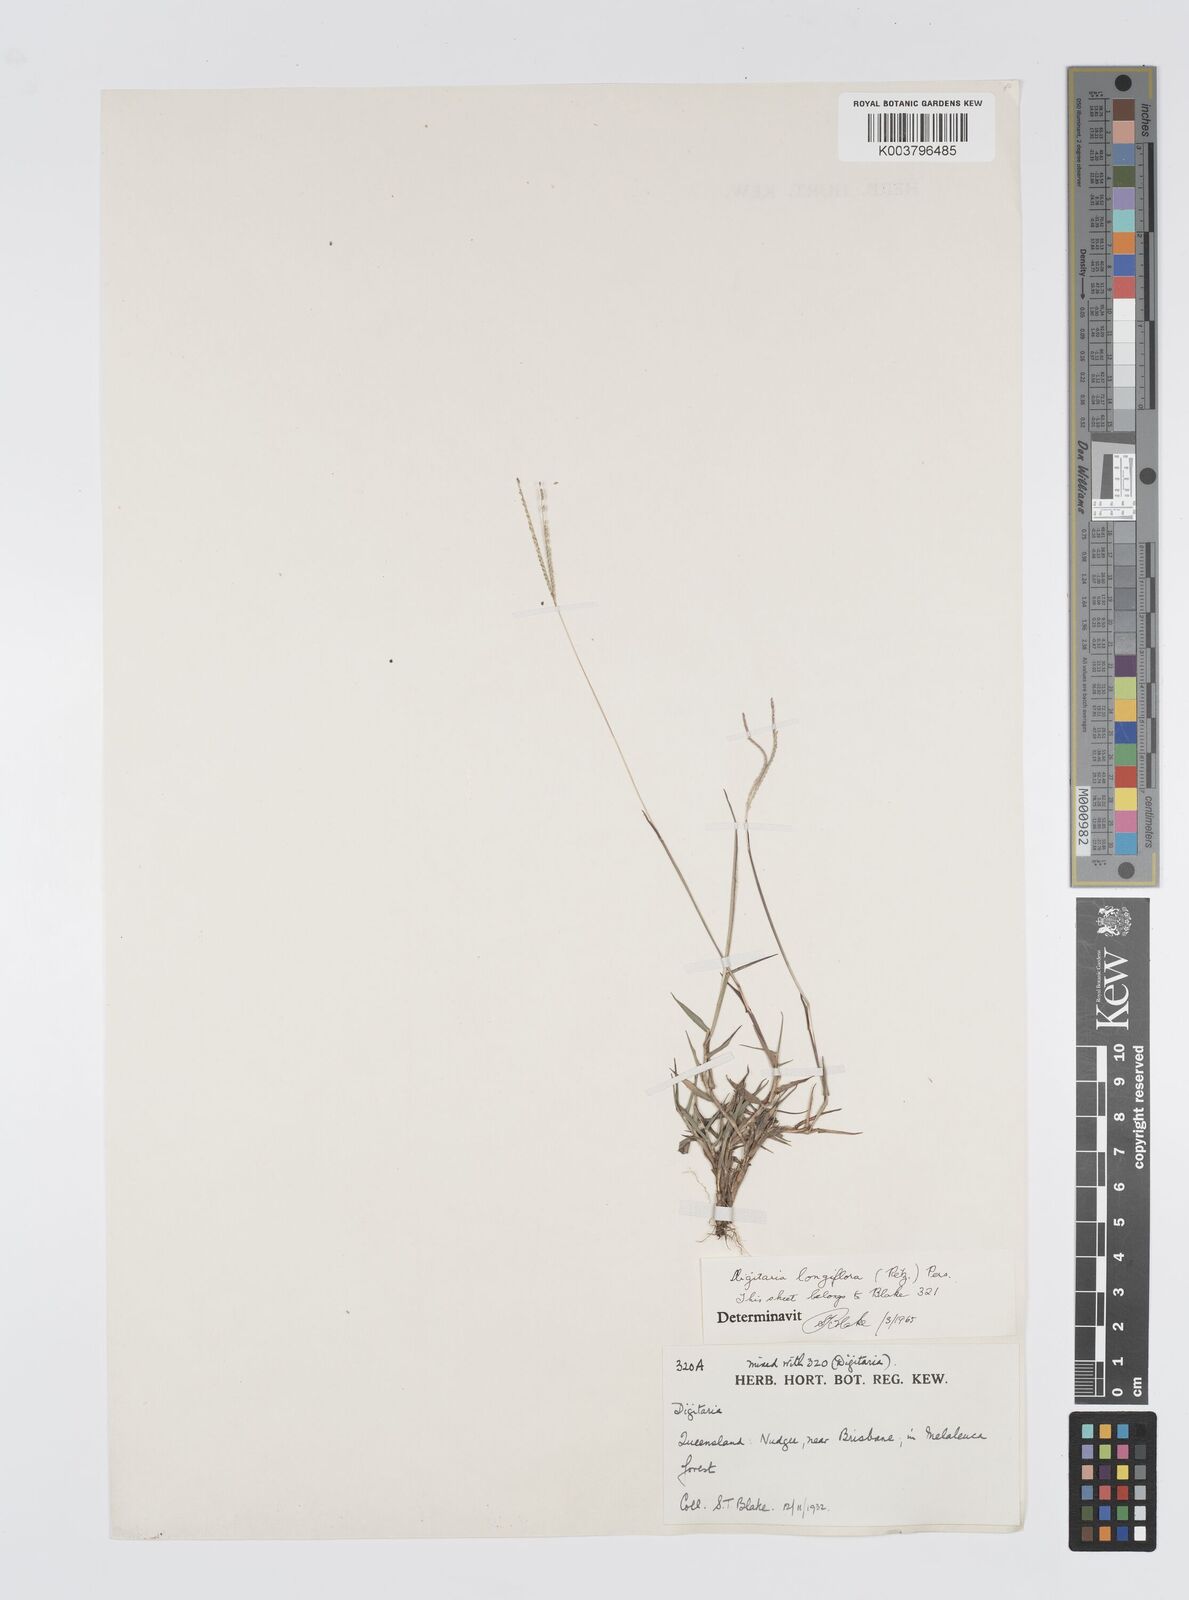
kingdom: Plantae
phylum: Tracheophyta
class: Liliopsida
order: Poales
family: Poaceae
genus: Digitaria
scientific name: Digitaria longiflora
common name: Wire crabgrass
